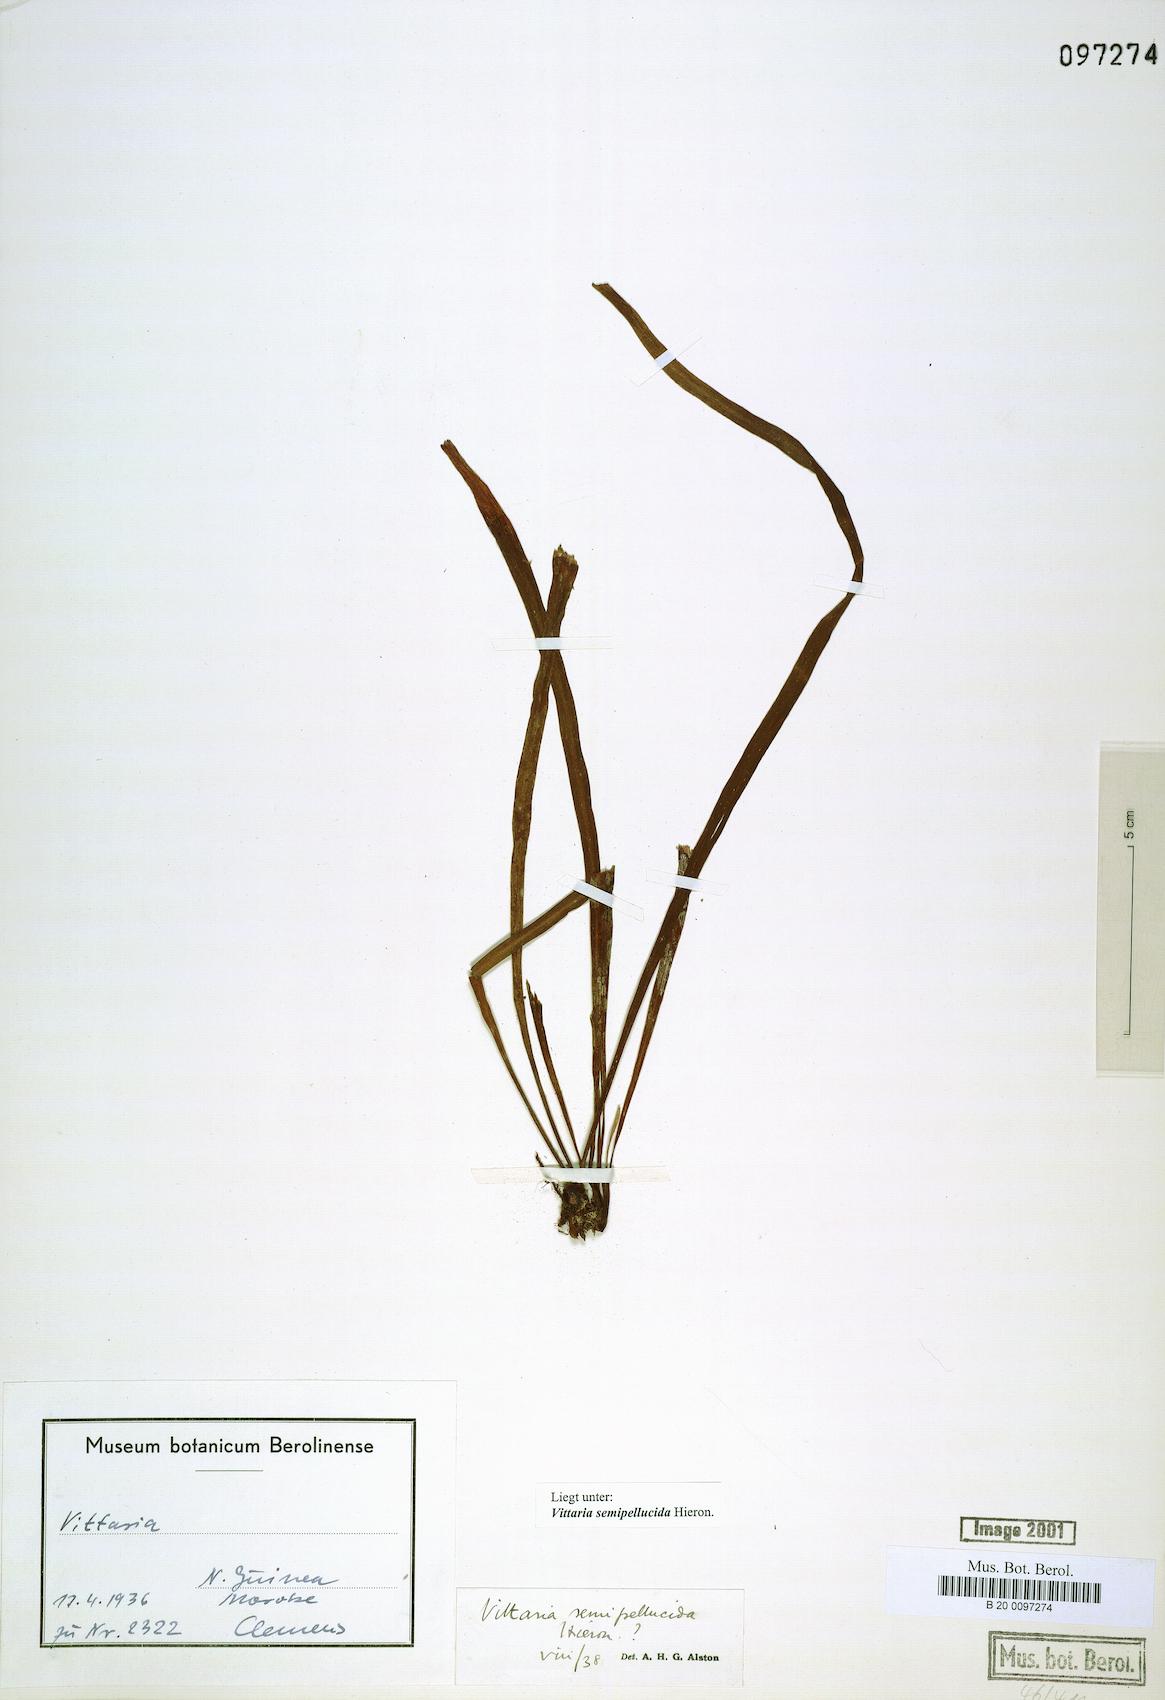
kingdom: Plantae
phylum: Tracheophyta
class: Polypodiopsida
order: Polypodiales
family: Pteridaceae
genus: Haplopteris
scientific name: Haplopteris elongata
